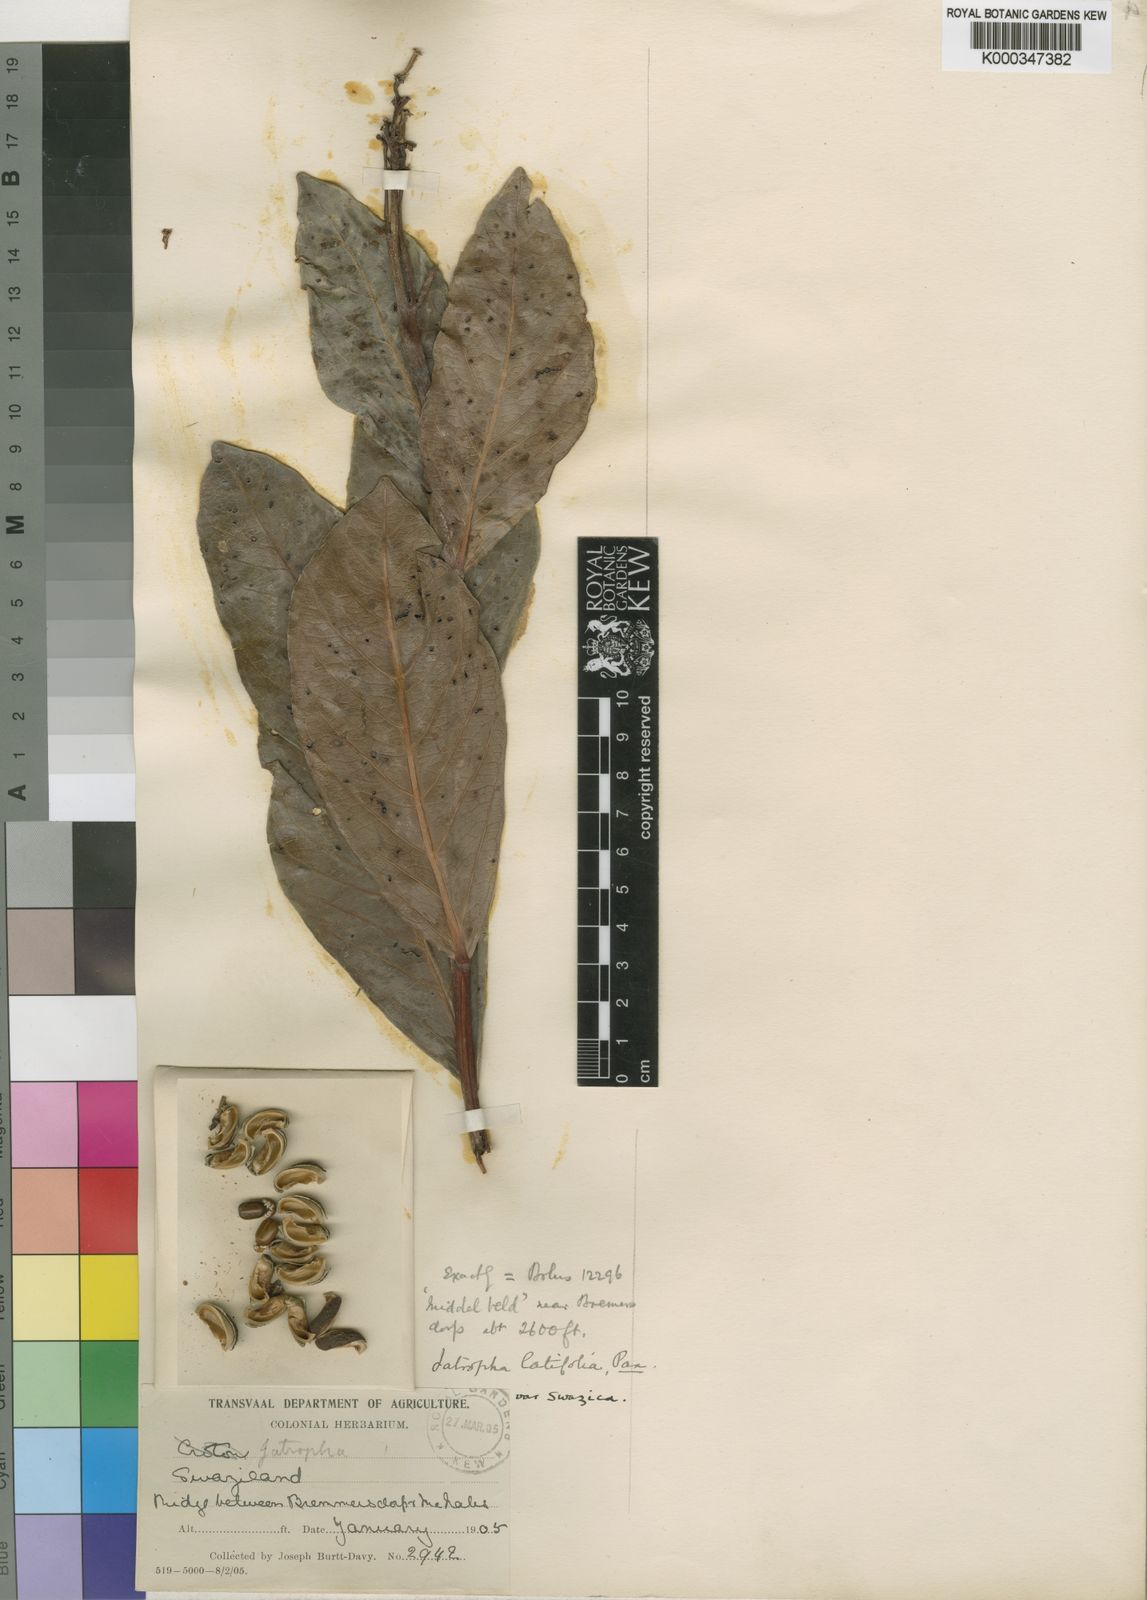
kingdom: Plantae
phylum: Tracheophyta
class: Magnoliopsida
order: Malpighiales
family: Euphorbiaceae
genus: Jatropha
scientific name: Jatropha latifolia
